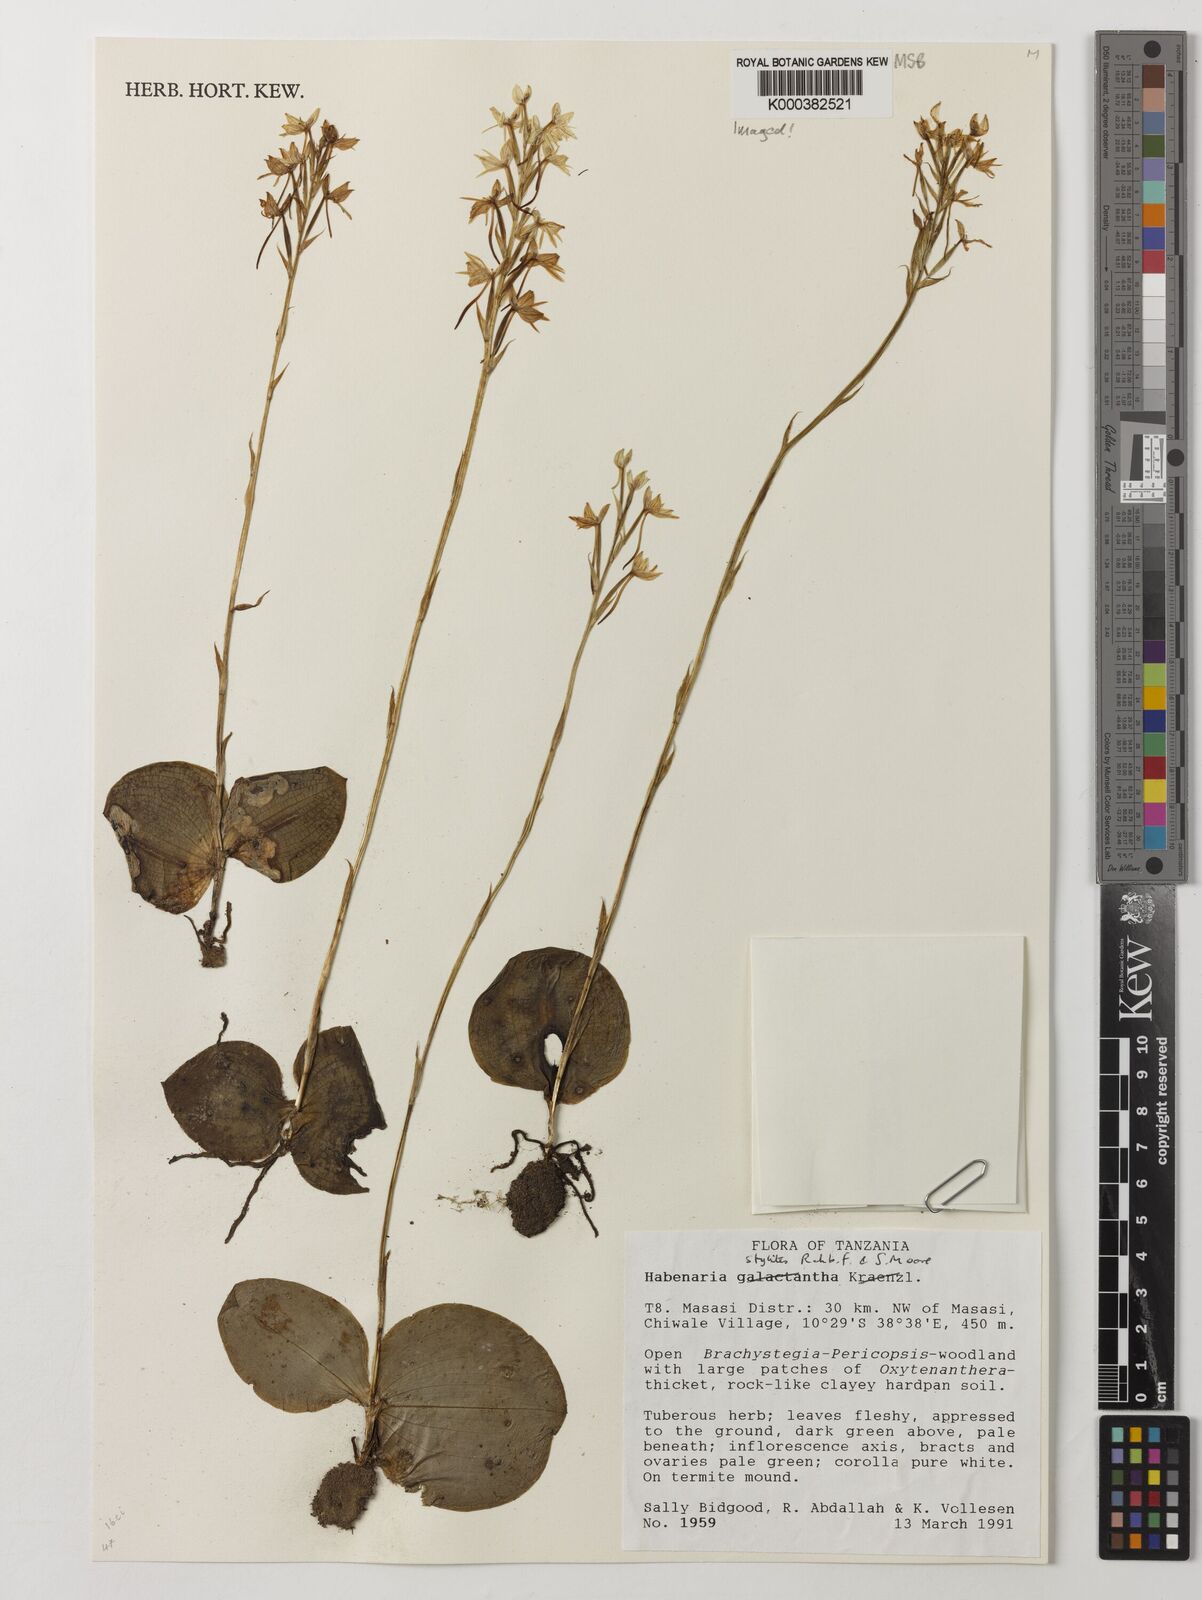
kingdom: Plantae
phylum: Tracheophyta
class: Liliopsida
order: Asparagales
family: Orchidaceae
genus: Habenaria
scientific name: Habenaria stylites
